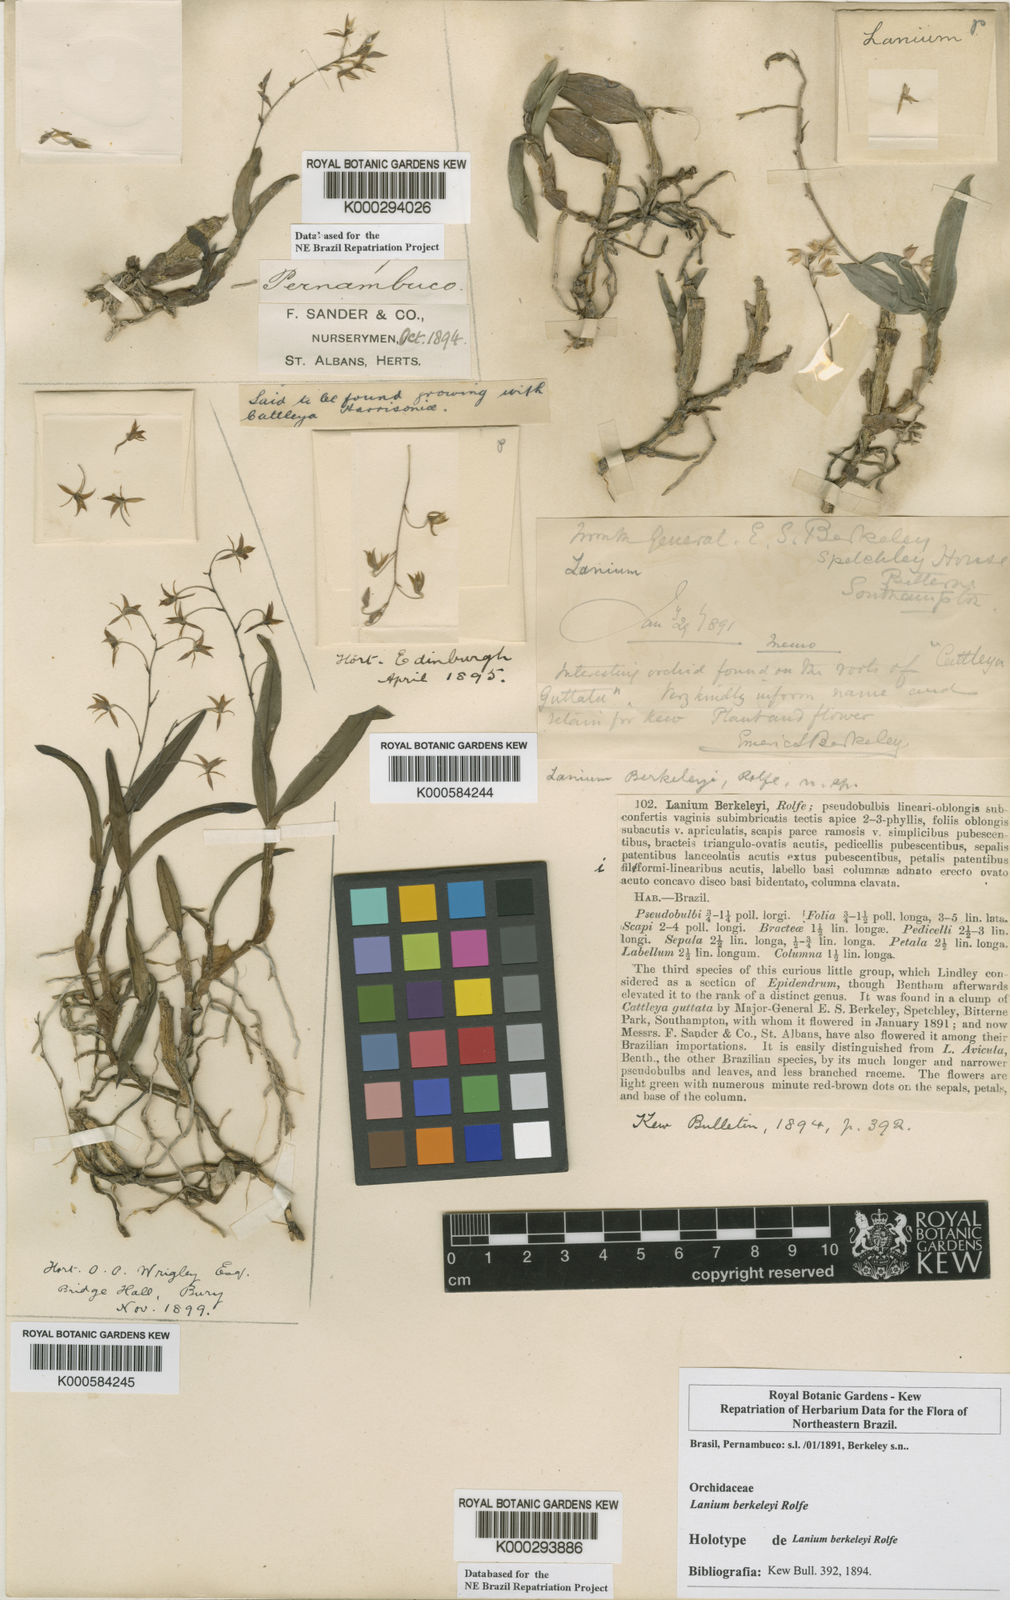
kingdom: Plantae
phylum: Tracheophyta
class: Liliopsida
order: Asparagales
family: Orchidaceae
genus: Epidendrum
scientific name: Epidendrum avicula
